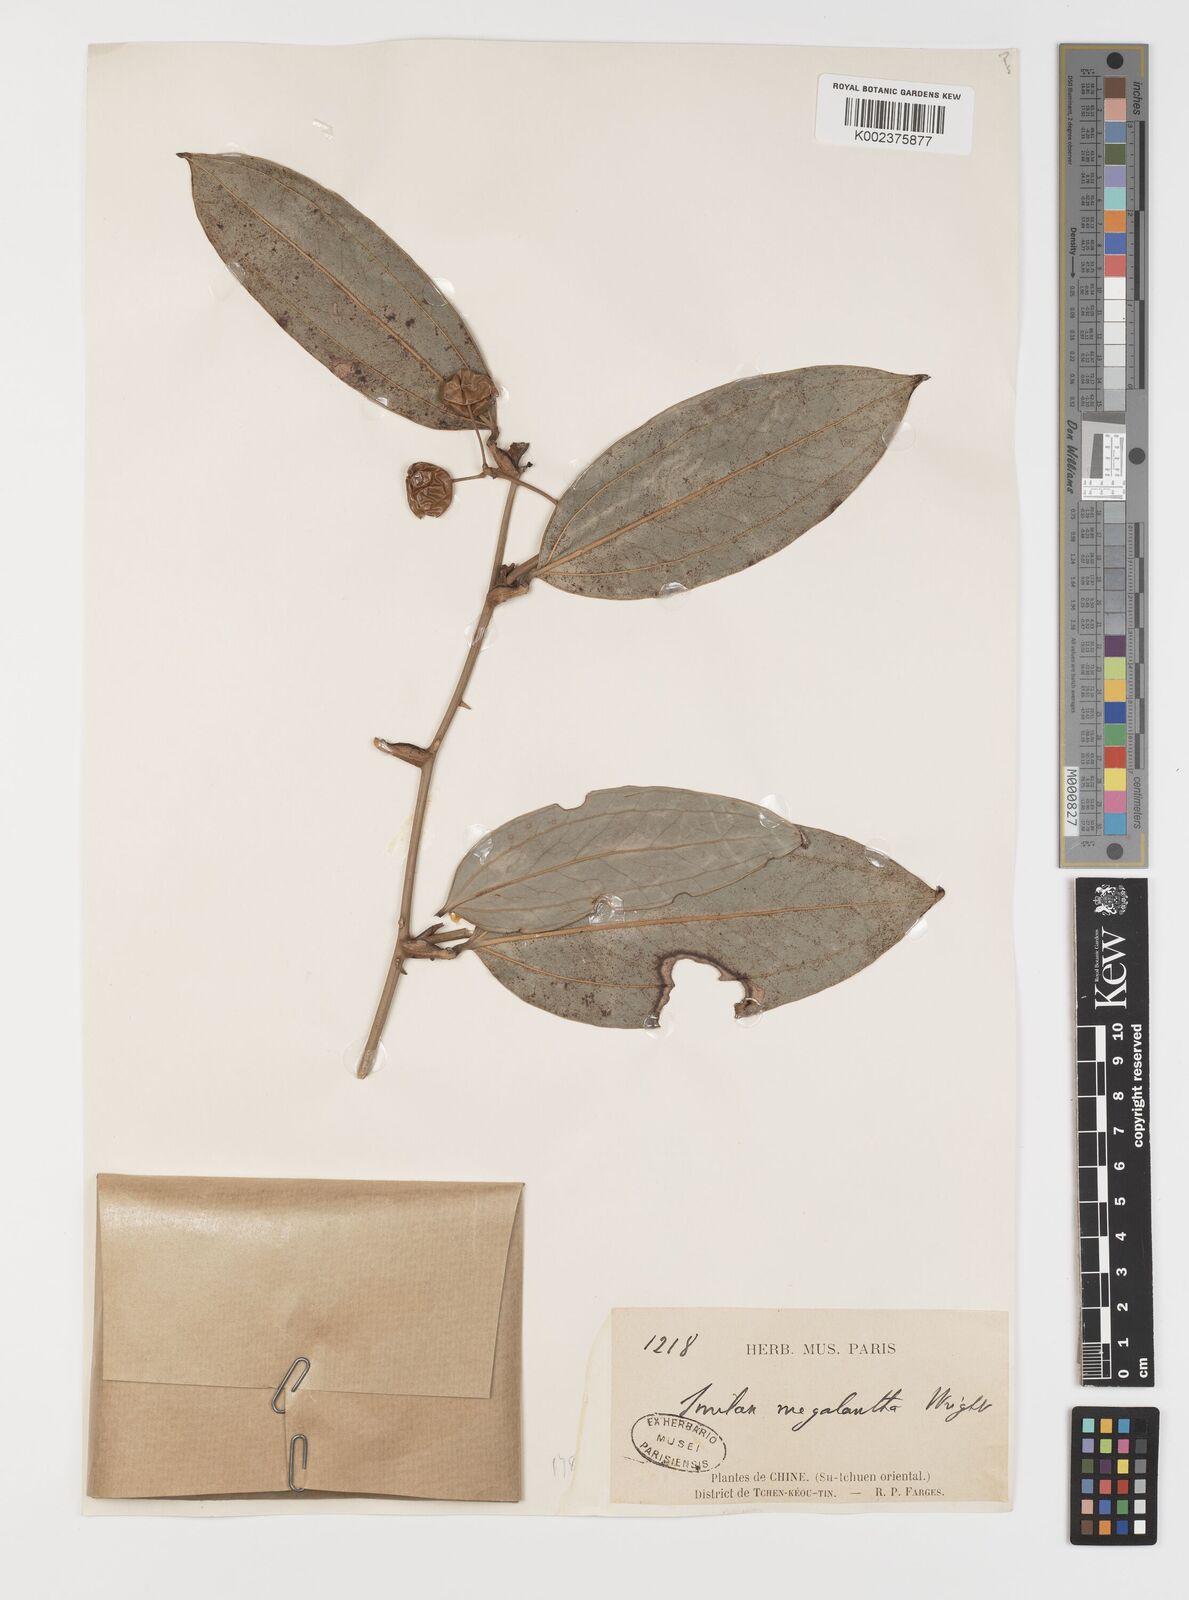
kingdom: Plantae
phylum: Tracheophyta
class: Liliopsida
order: Liliales
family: Smilacaceae
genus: Smilax
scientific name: Smilax megalantha
